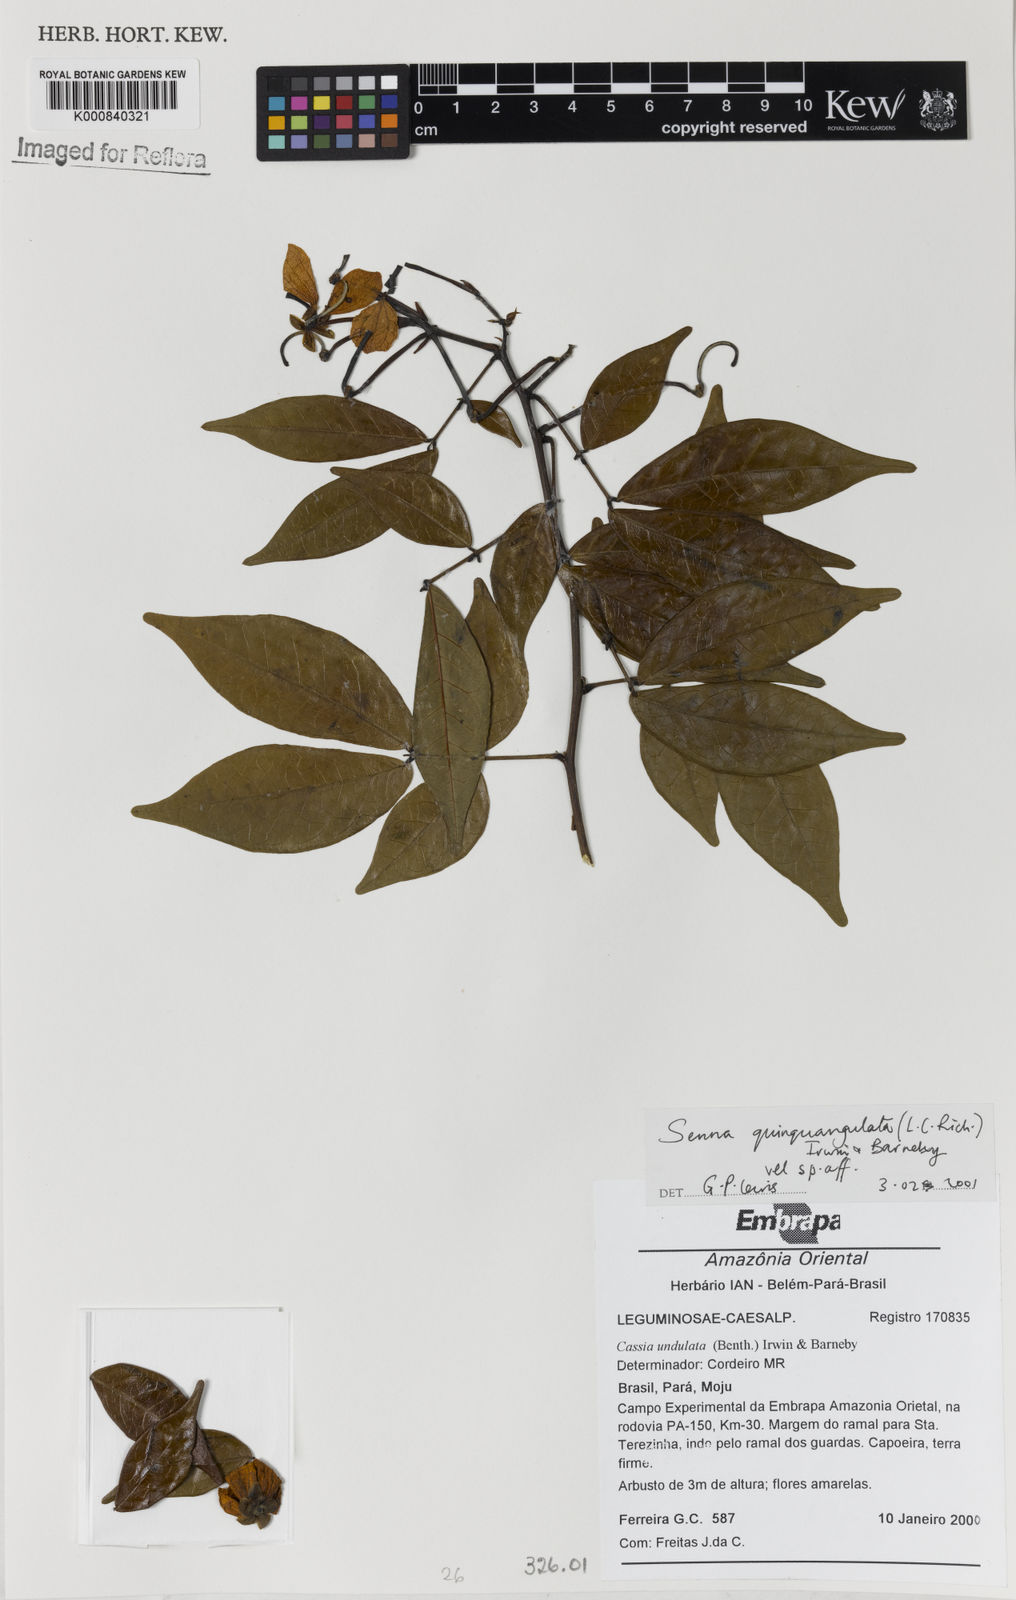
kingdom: Plantae
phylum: Tracheophyta
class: Magnoliopsida
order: Fabales
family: Fabaceae
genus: Senna
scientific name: Senna undulata
